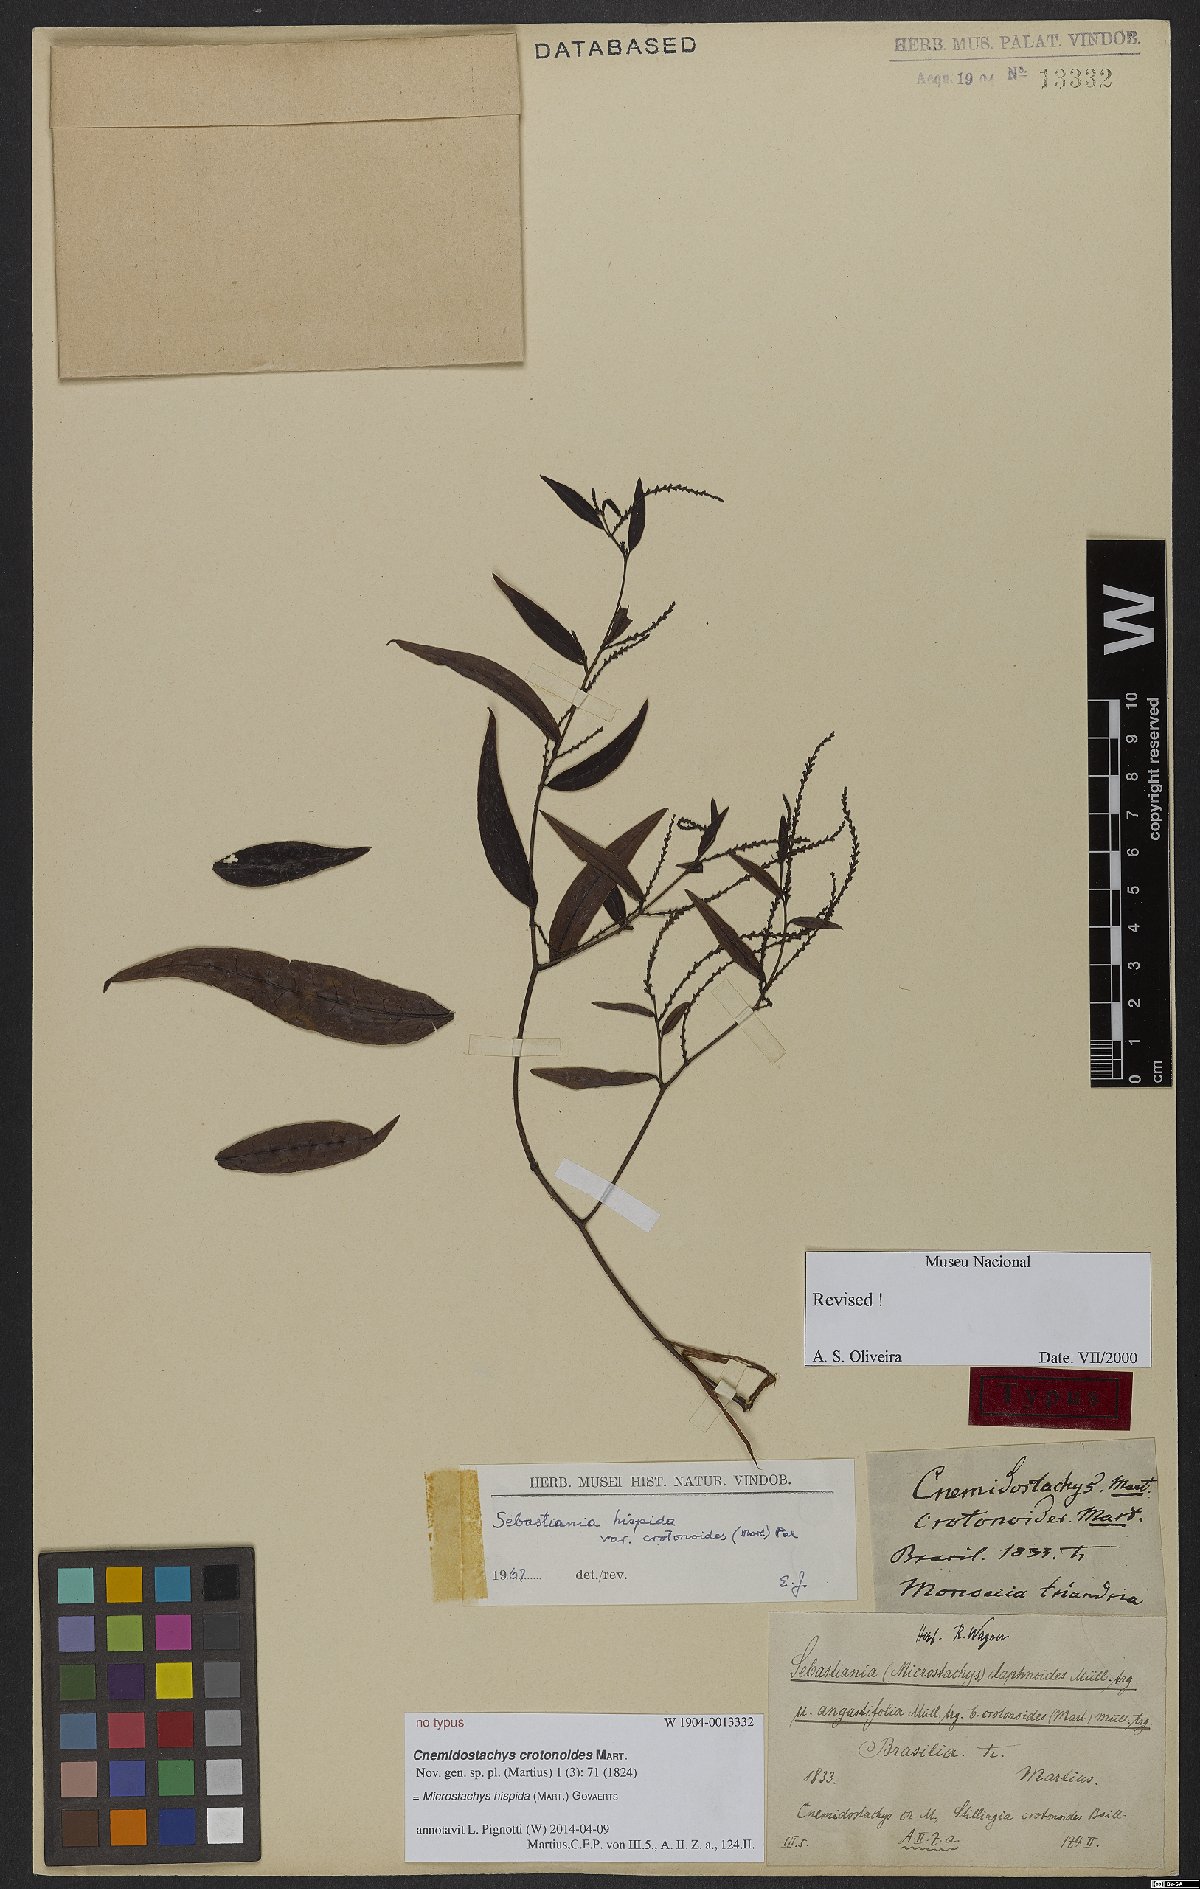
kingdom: Plantae
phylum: Tracheophyta
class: Magnoliopsida
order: Malpighiales
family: Euphorbiaceae
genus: Microstachys
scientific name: Microstachys hispida
